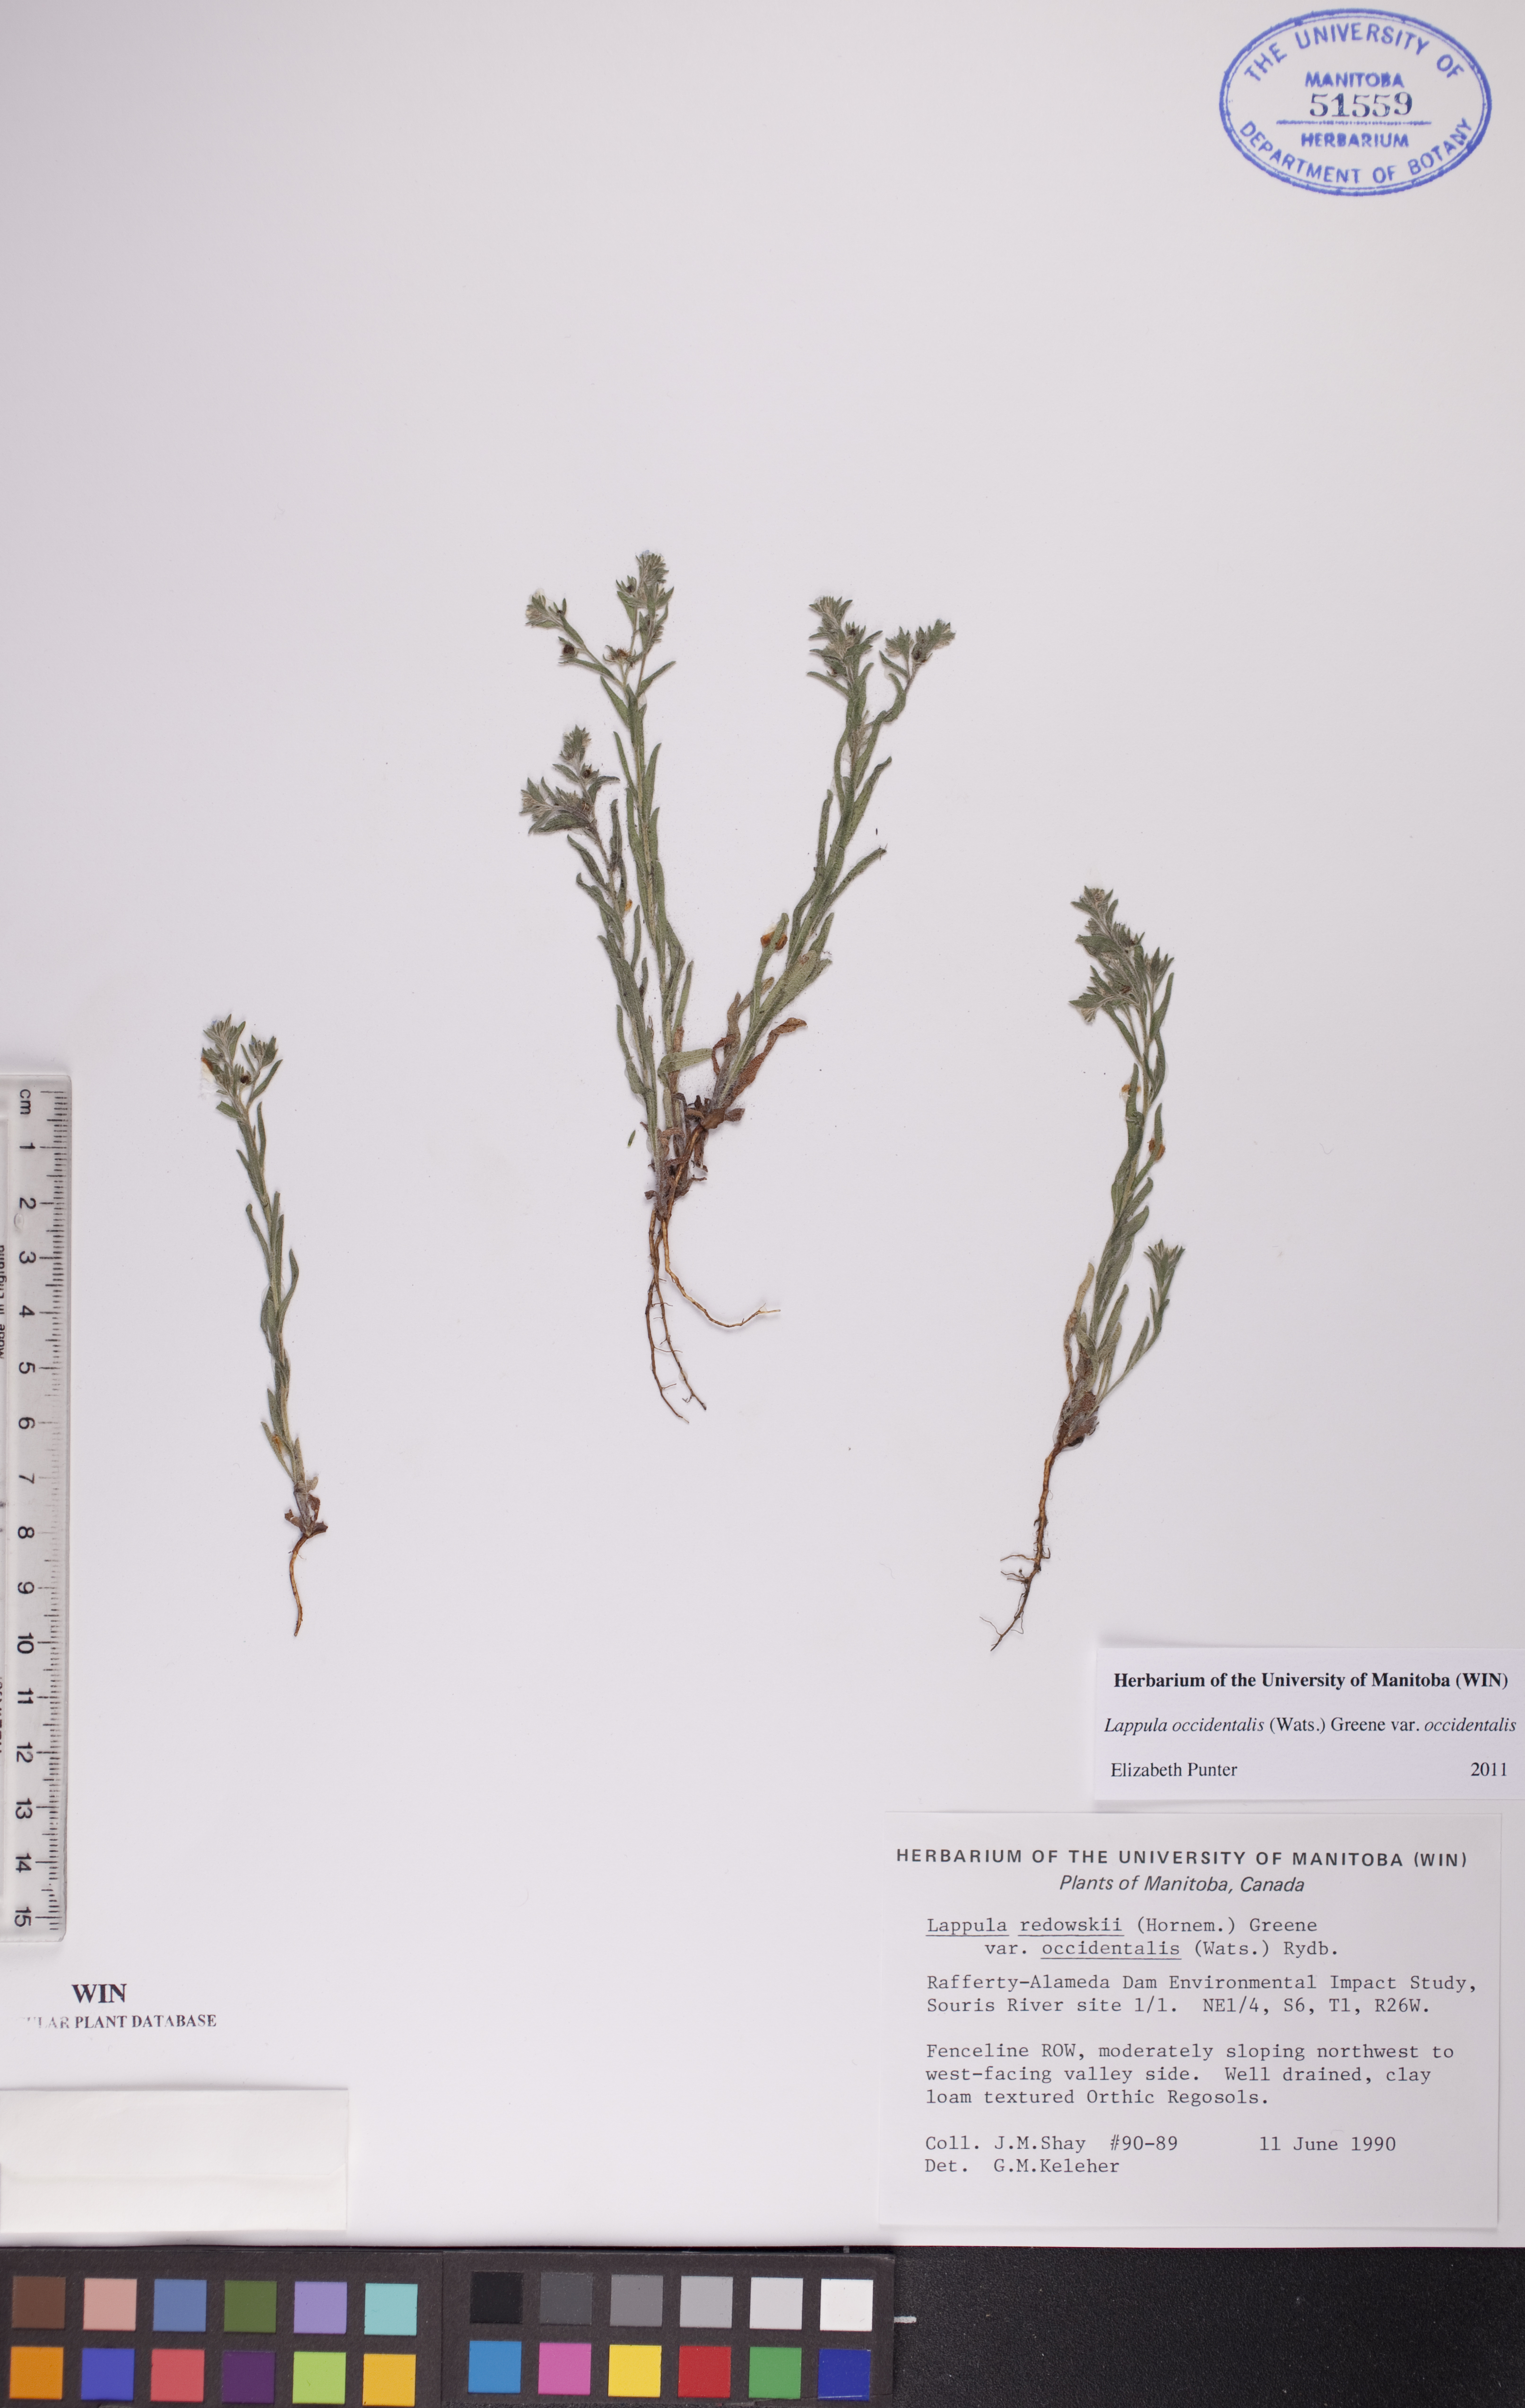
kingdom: Plantae
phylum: Tracheophyta
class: Magnoliopsida
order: Boraginales
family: Boraginaceae
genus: Lappula
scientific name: Lappula occidentalis
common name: Western stickseed
